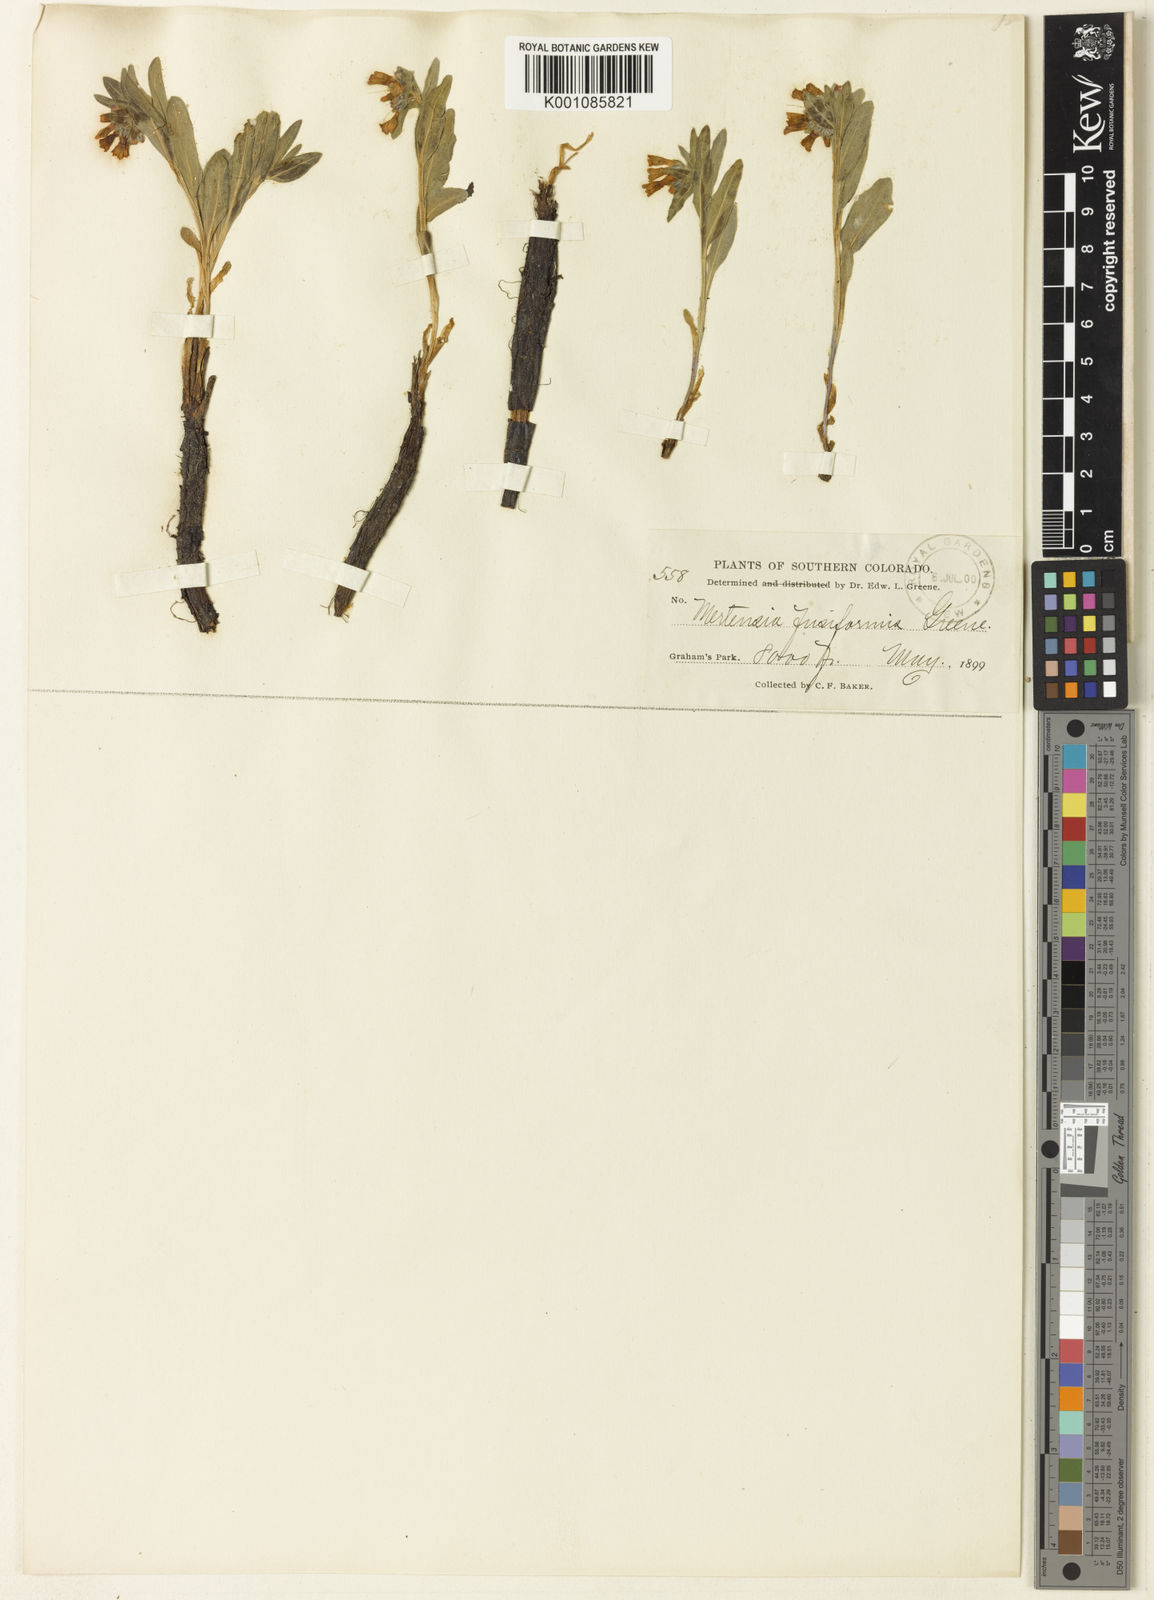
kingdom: Plantae
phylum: Tracheophyta
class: Magnoliopsida
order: Boraginales
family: Boraginaceae
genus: Mertensia
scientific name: Mertensia brevistyla
